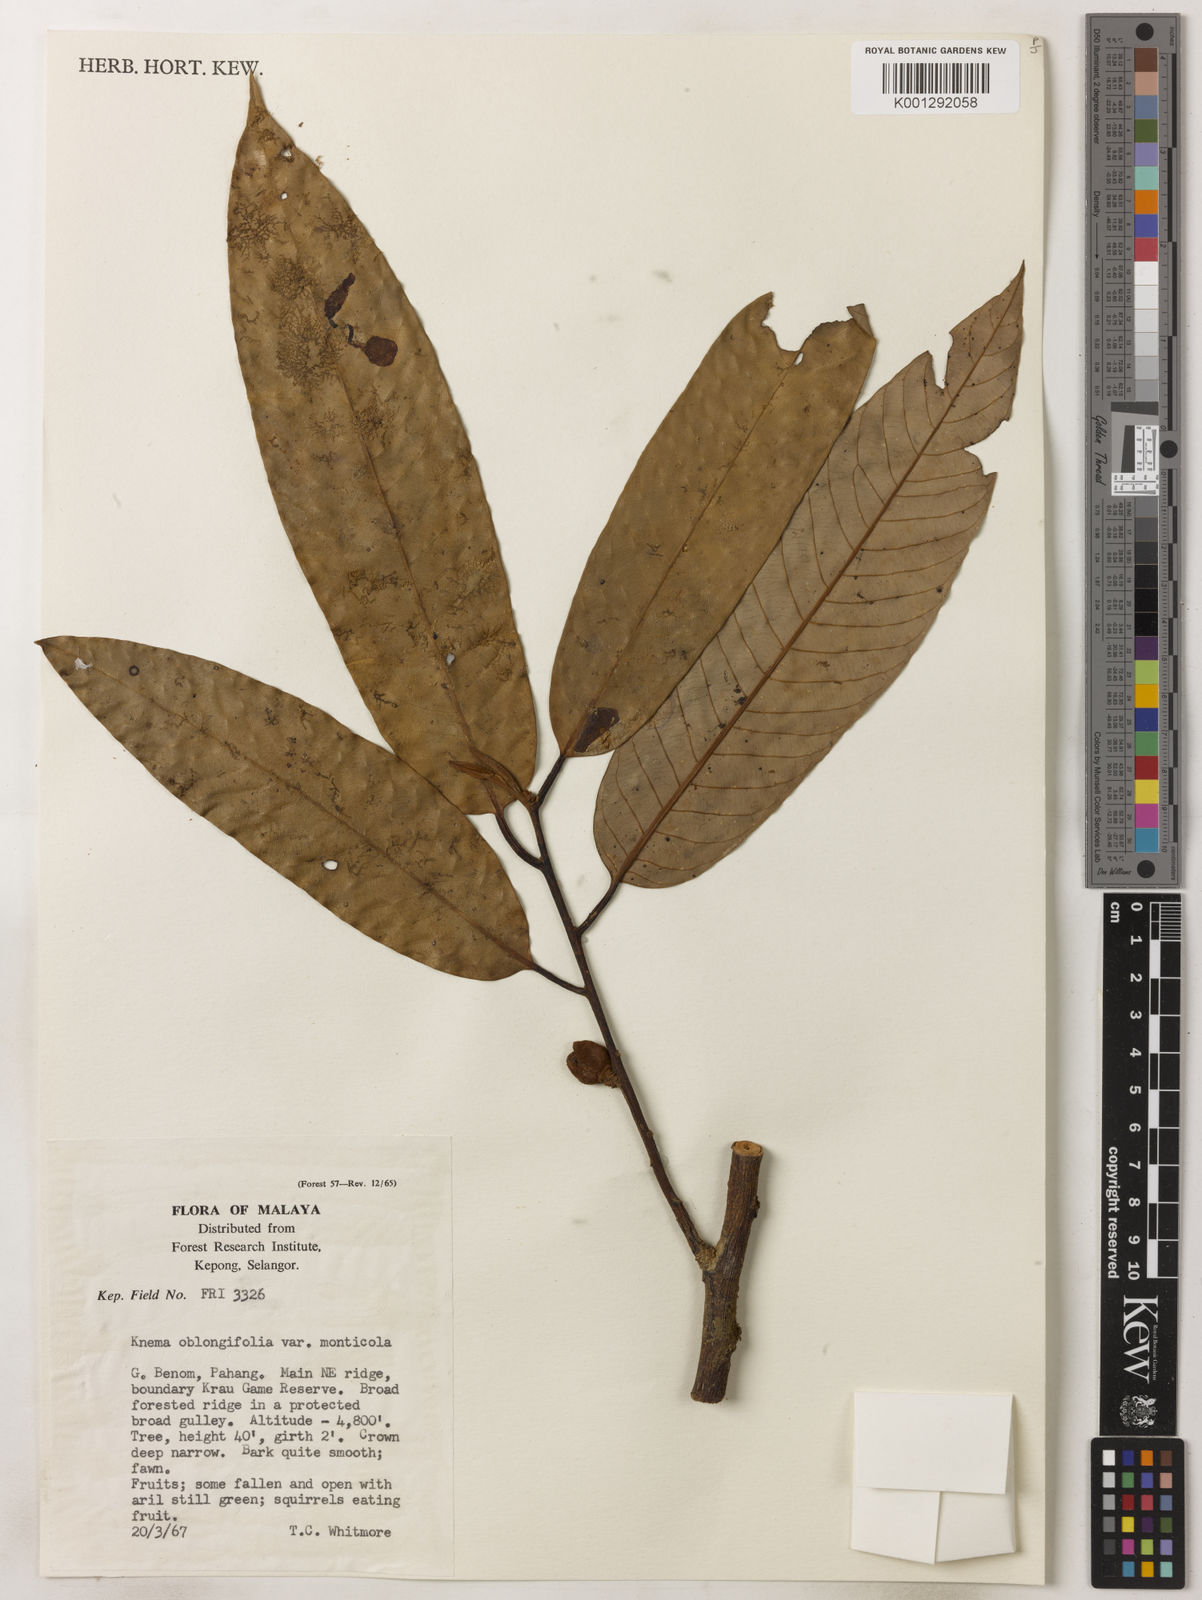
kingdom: Plantae
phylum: Tracheophyta
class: Magnoliopsida
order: Magnoliales
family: Myristicaceae
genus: Knema
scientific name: Knema
